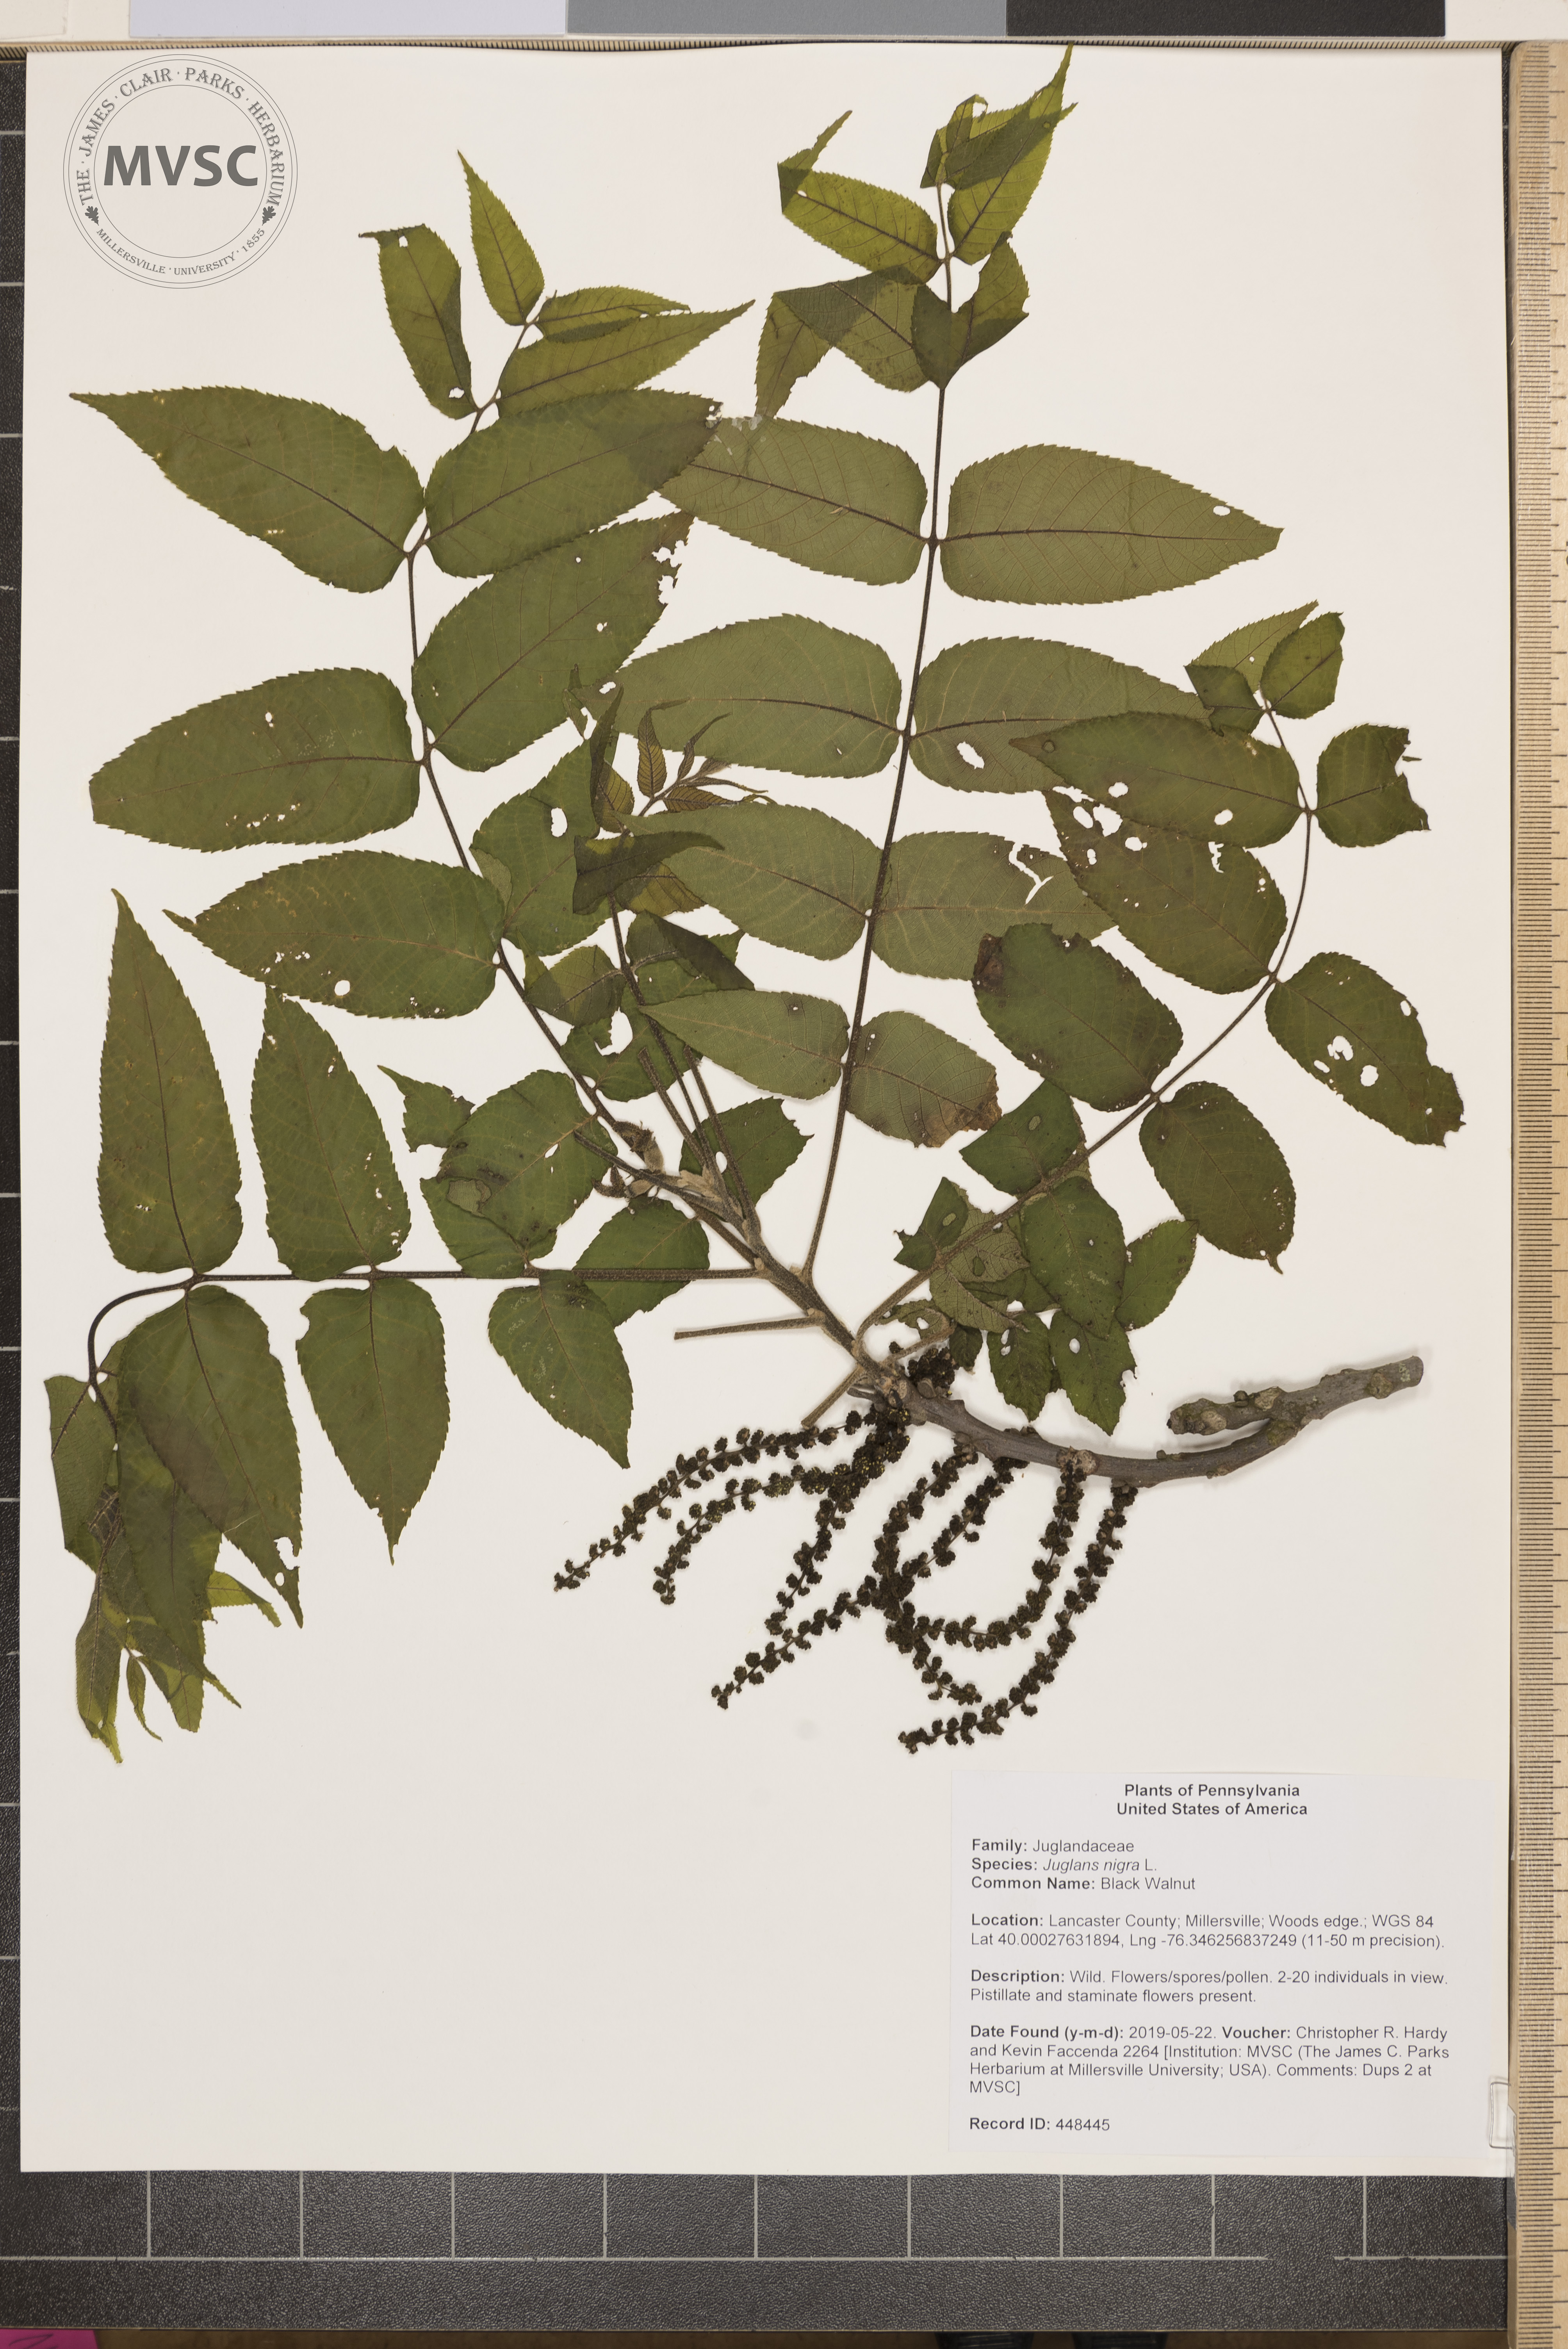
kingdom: Plantae
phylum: Tracheophyta
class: Magnoliopsida
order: Fagales
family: Juglandaceae
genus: Juglans
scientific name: Juglans nigra
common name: Black Walnut
